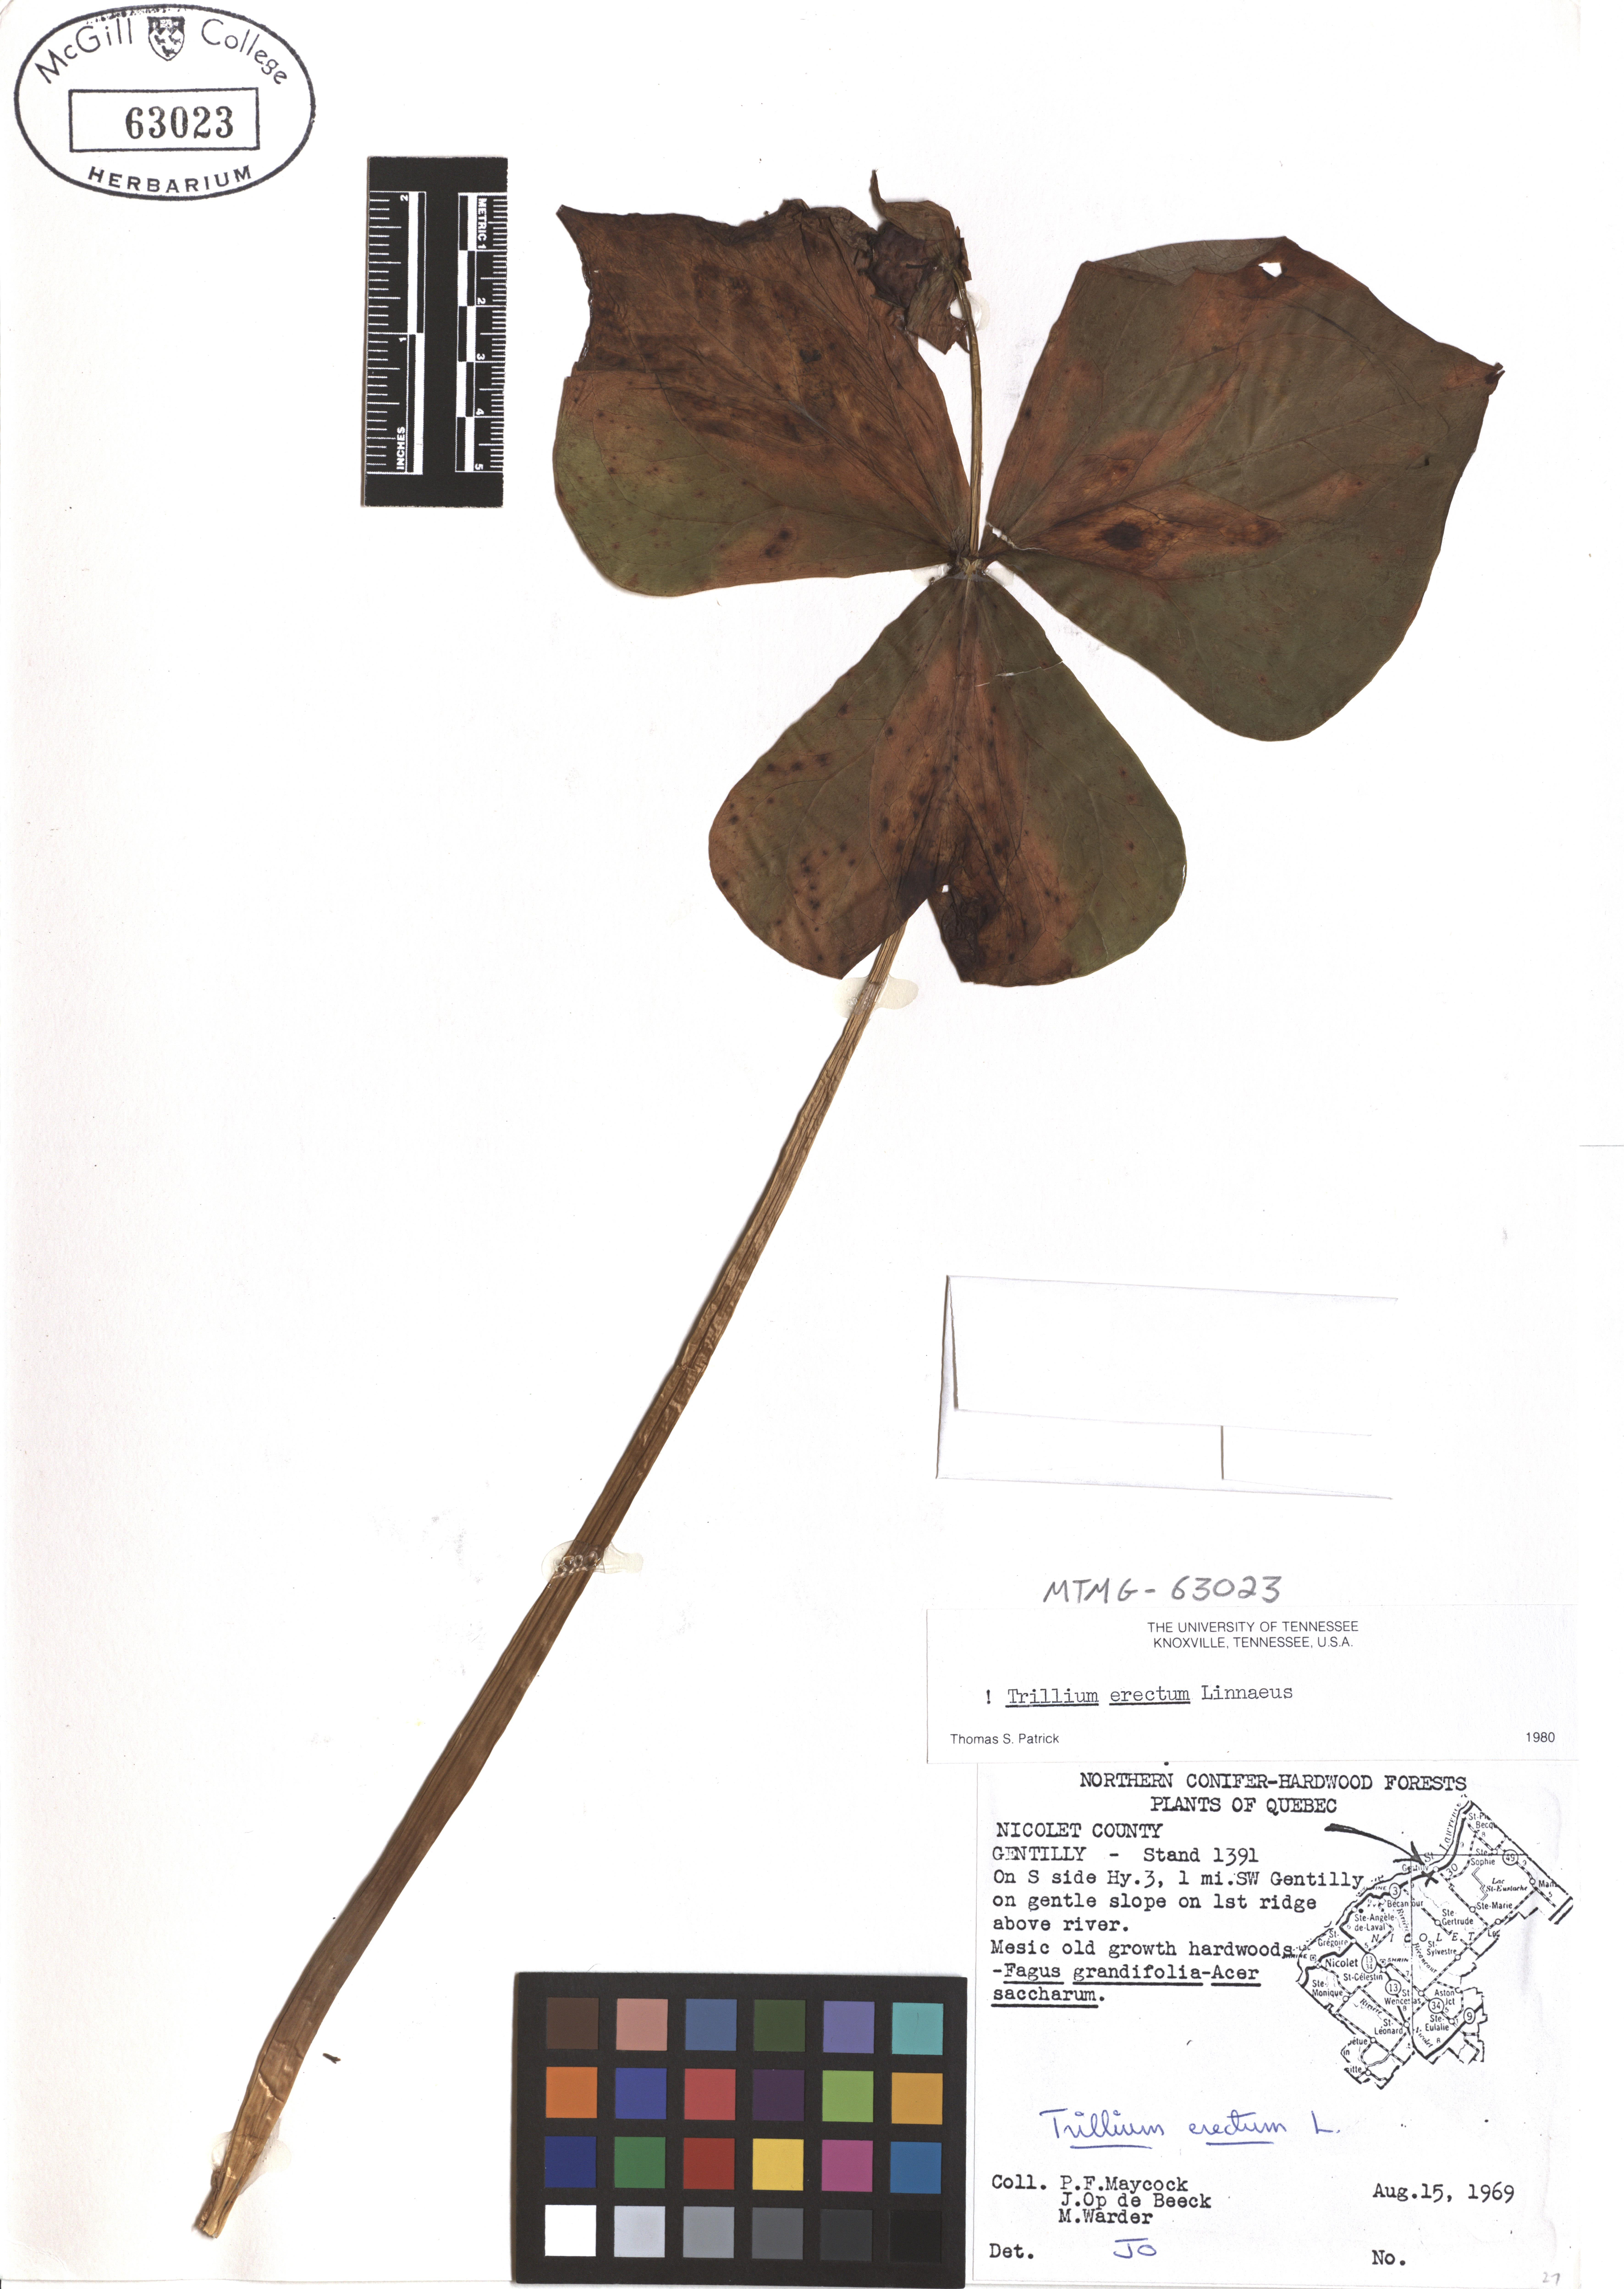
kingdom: Plantae
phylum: Tracheophyta
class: Liliopsida
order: Liliales
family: Melanthiaceae
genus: Trillium
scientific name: Trillium erectum
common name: Purple trillium
